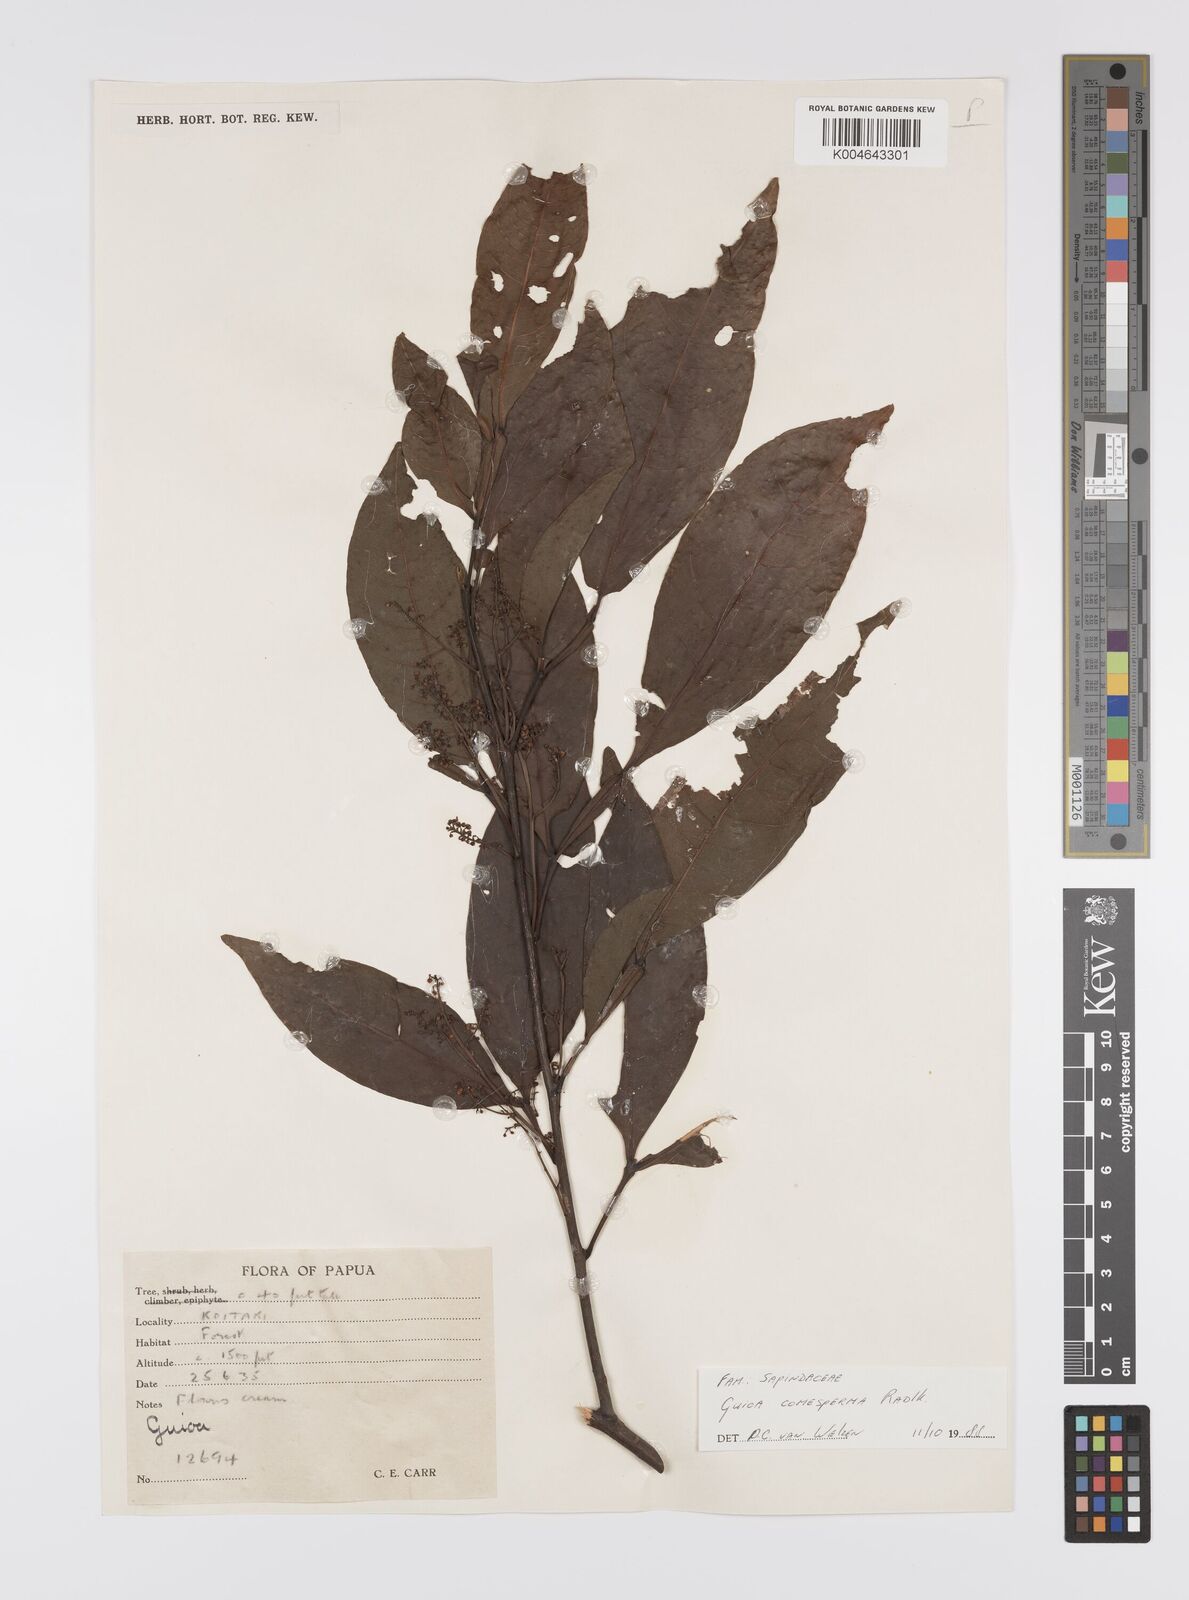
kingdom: Plantae
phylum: Tracheophyta
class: Magnoliopsida
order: Sapindales
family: Sapindaceae
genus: Guioa
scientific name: Guioa comesperma
